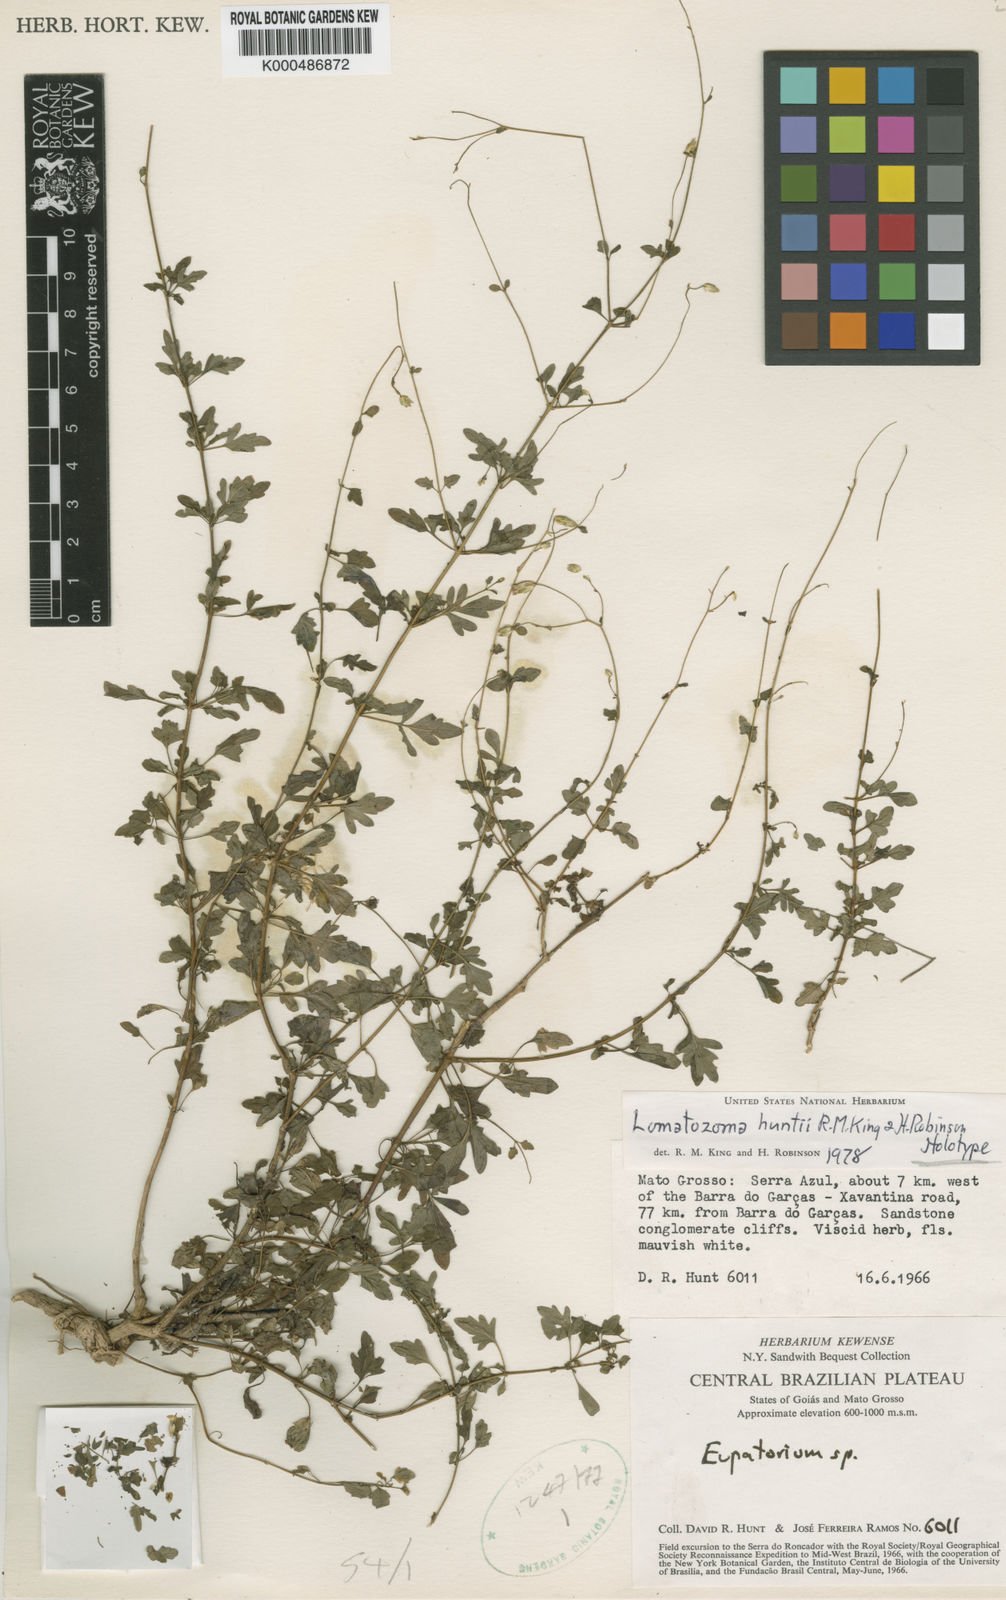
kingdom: Plantae
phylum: Tracheophyta
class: Magnoliopsida
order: Asterales
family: Asteraceae
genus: Lomatozona
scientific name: Lomatozona huntii
